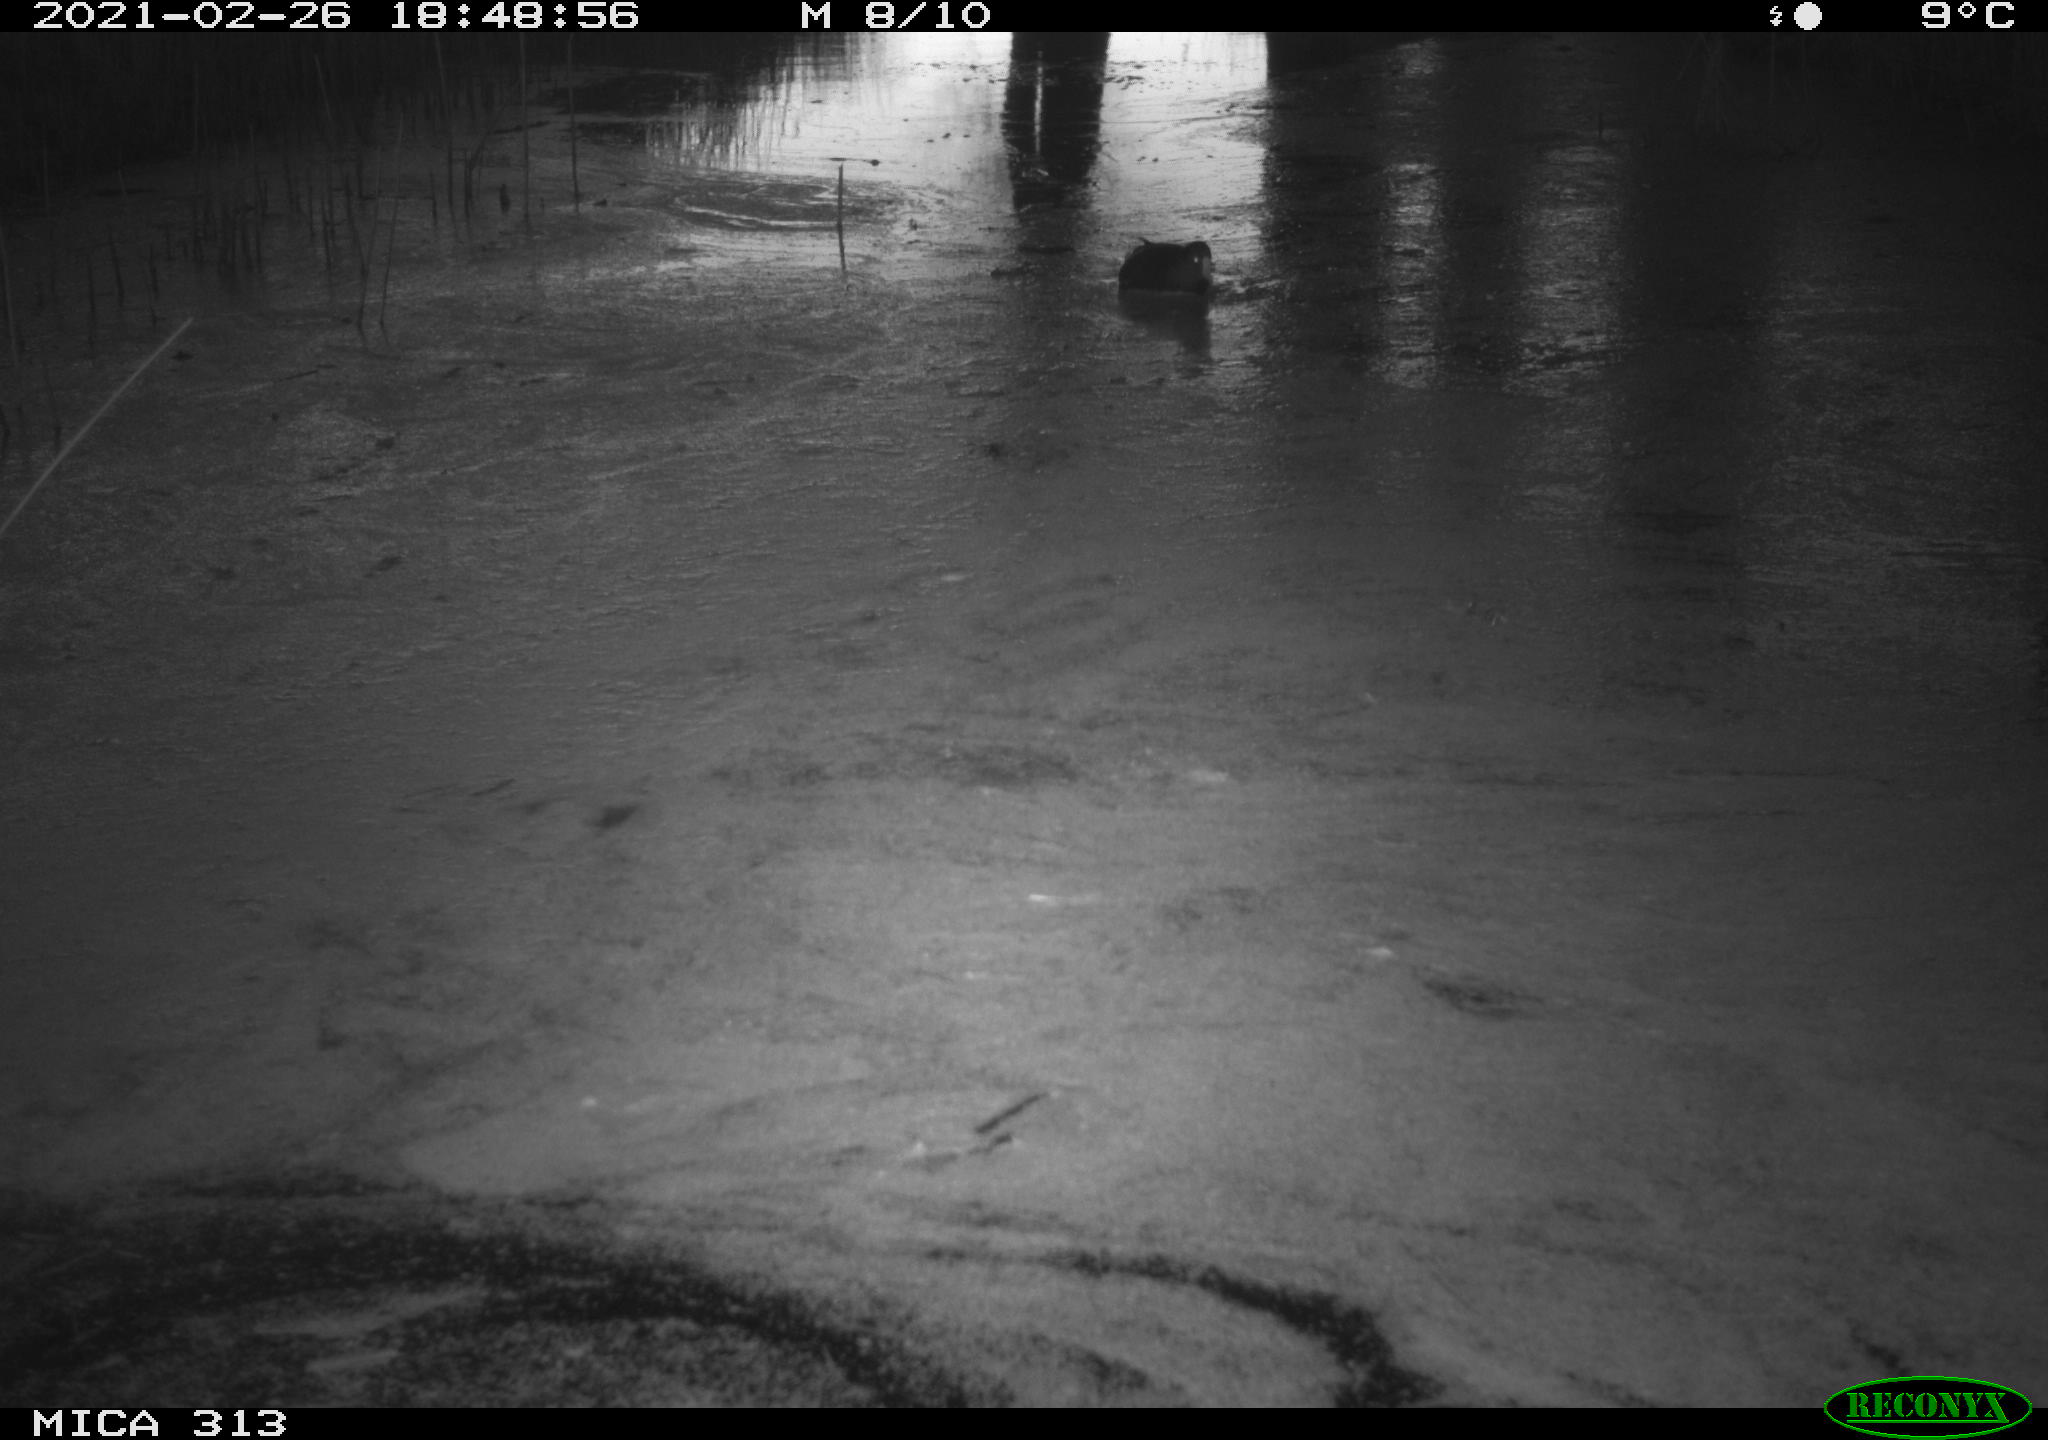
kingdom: Animalia
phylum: Chordata
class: Aves
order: Anseriformes
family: Anatidae
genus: Anas
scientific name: Anas
